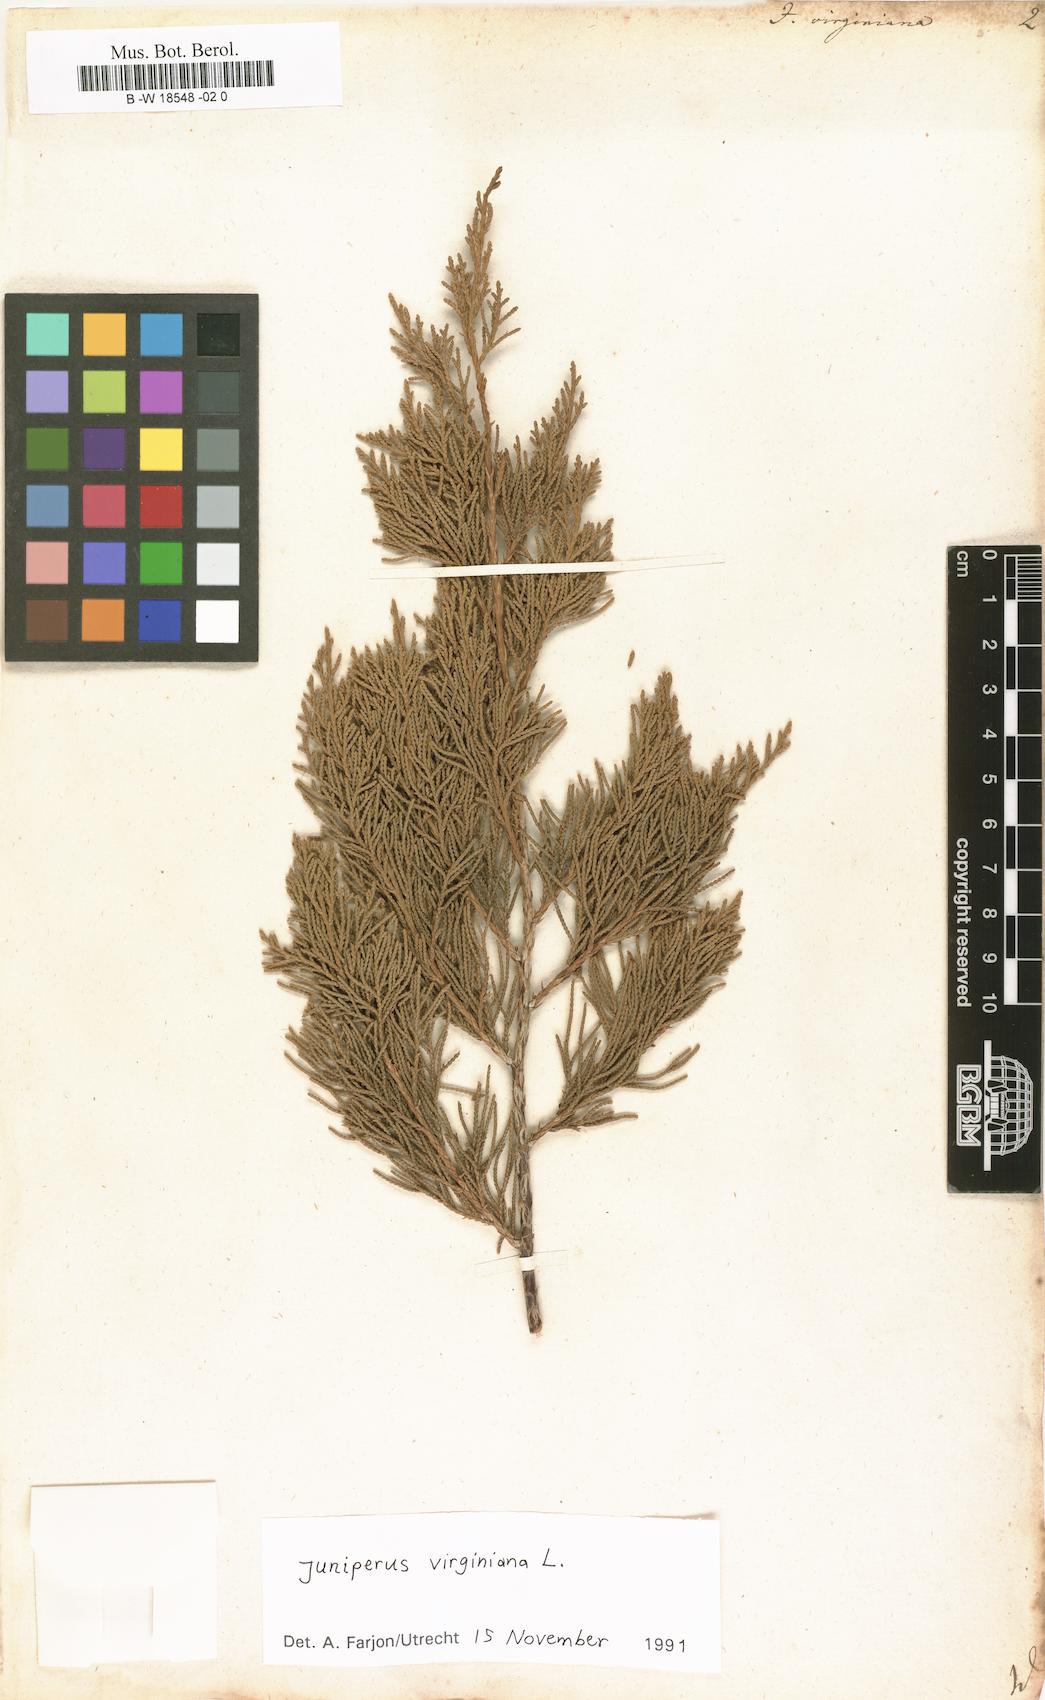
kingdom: Plantae
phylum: Tracheophyta
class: Pinopsida
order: Pinales
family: Cupressaceae
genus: Juniperus
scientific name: Juniperus virginiana
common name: Red juniper
